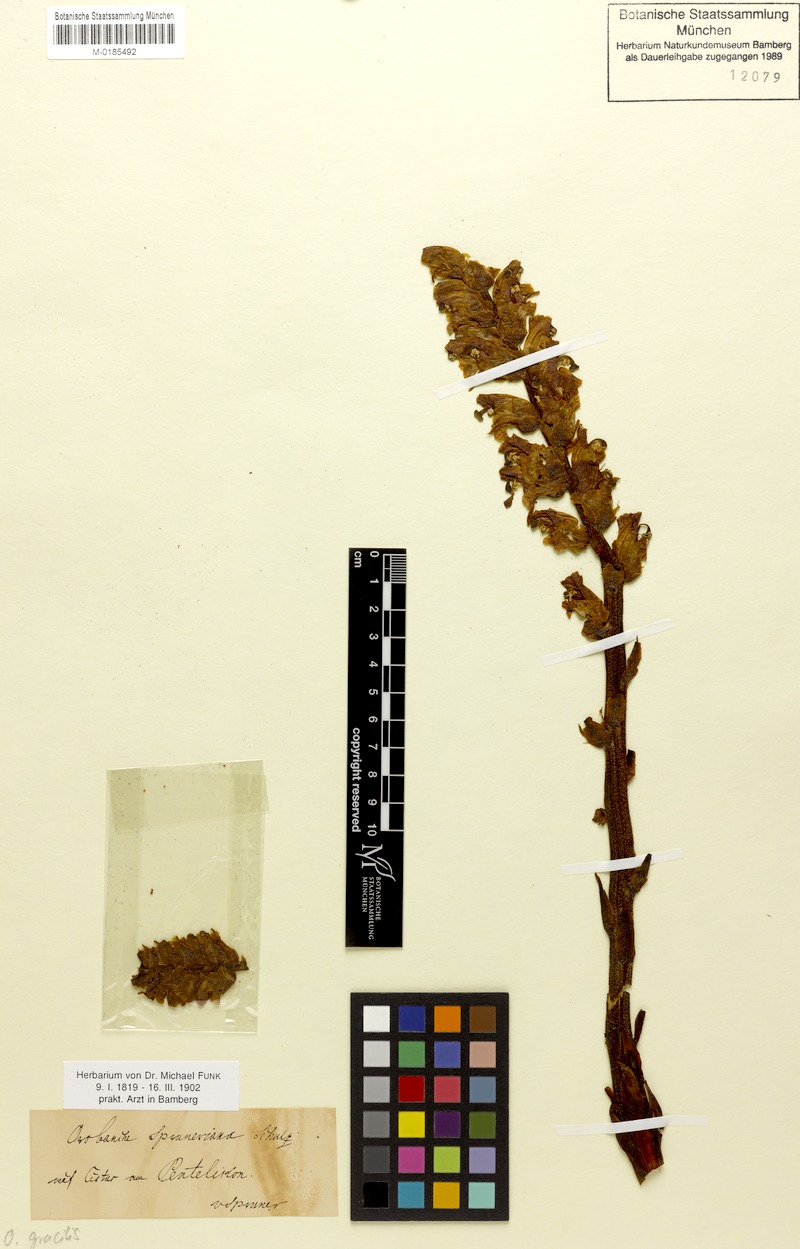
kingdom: Plantae
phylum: Tracheophyta
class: Magnoliopsida
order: Lamiales
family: Orobanchaceae
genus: Orobanche
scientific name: Orobanche gracilis
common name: Slender broomrape
